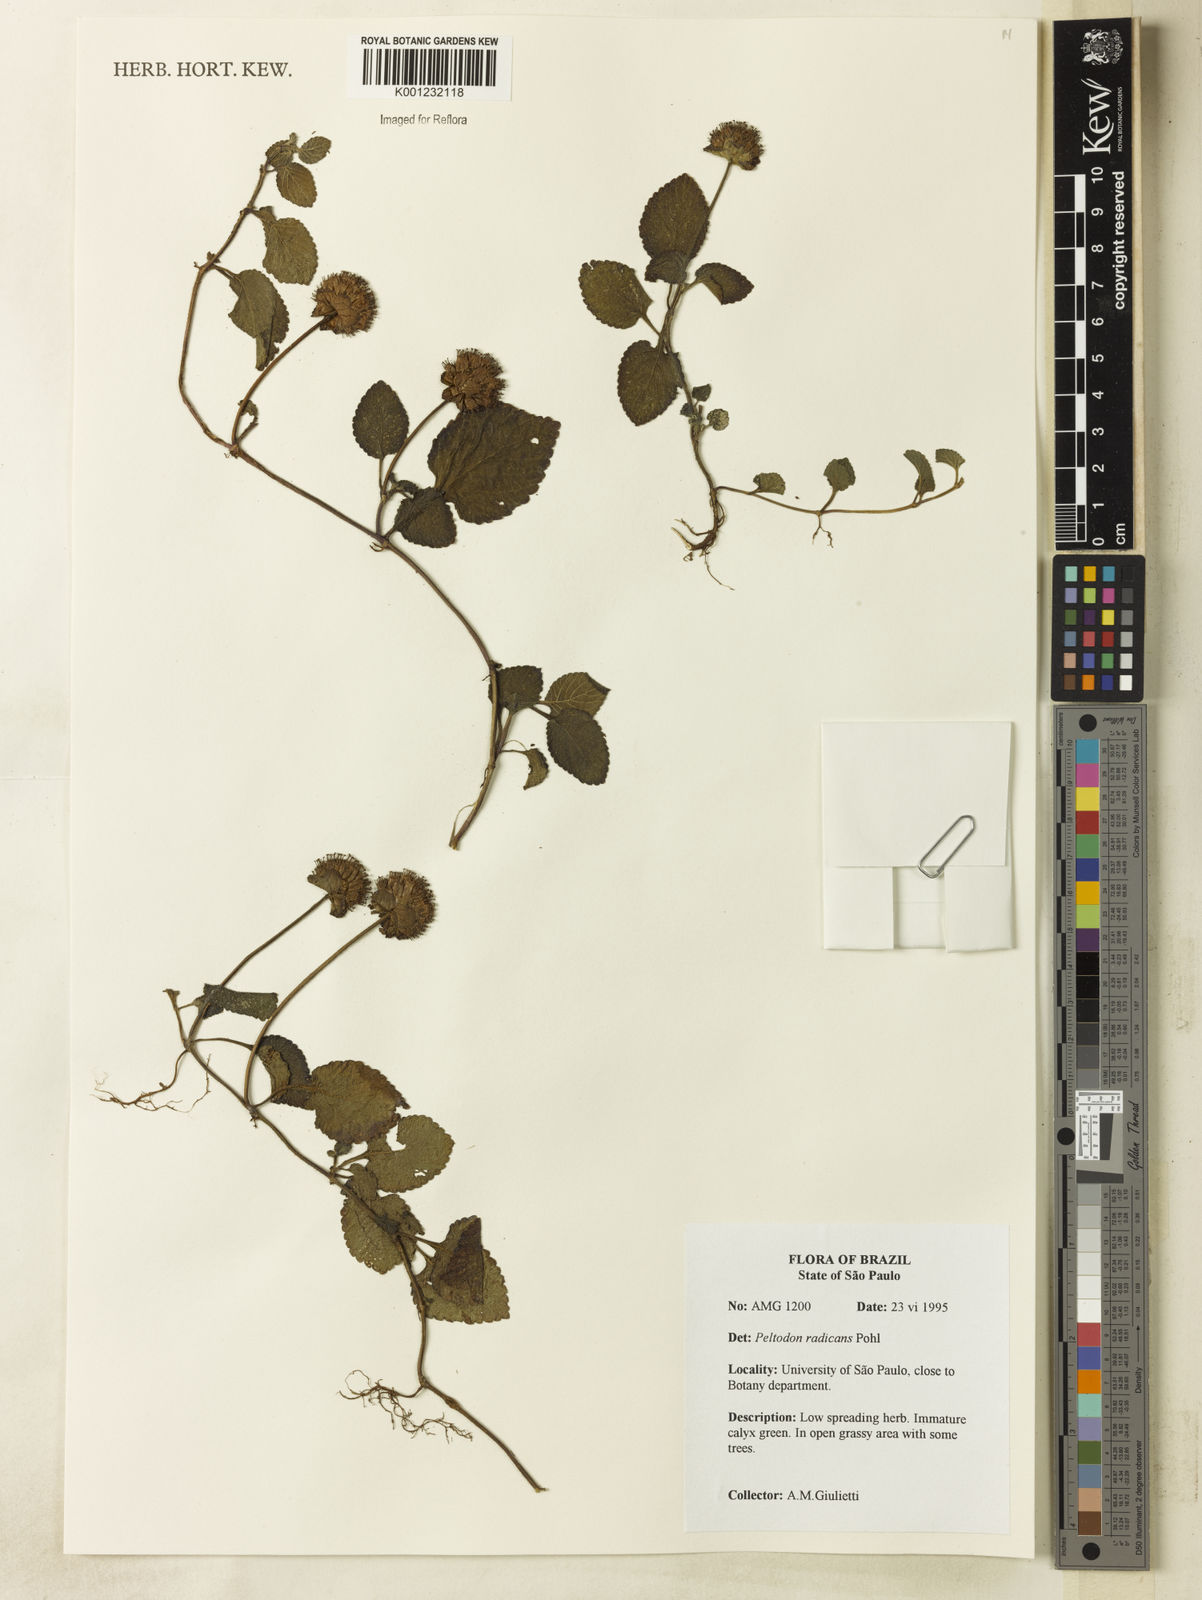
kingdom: Plantae
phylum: Tracheophyta
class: Magnoliopsida
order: Lamiales
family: Lamiaceae
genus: Hyptis
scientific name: Hyptis radicans
